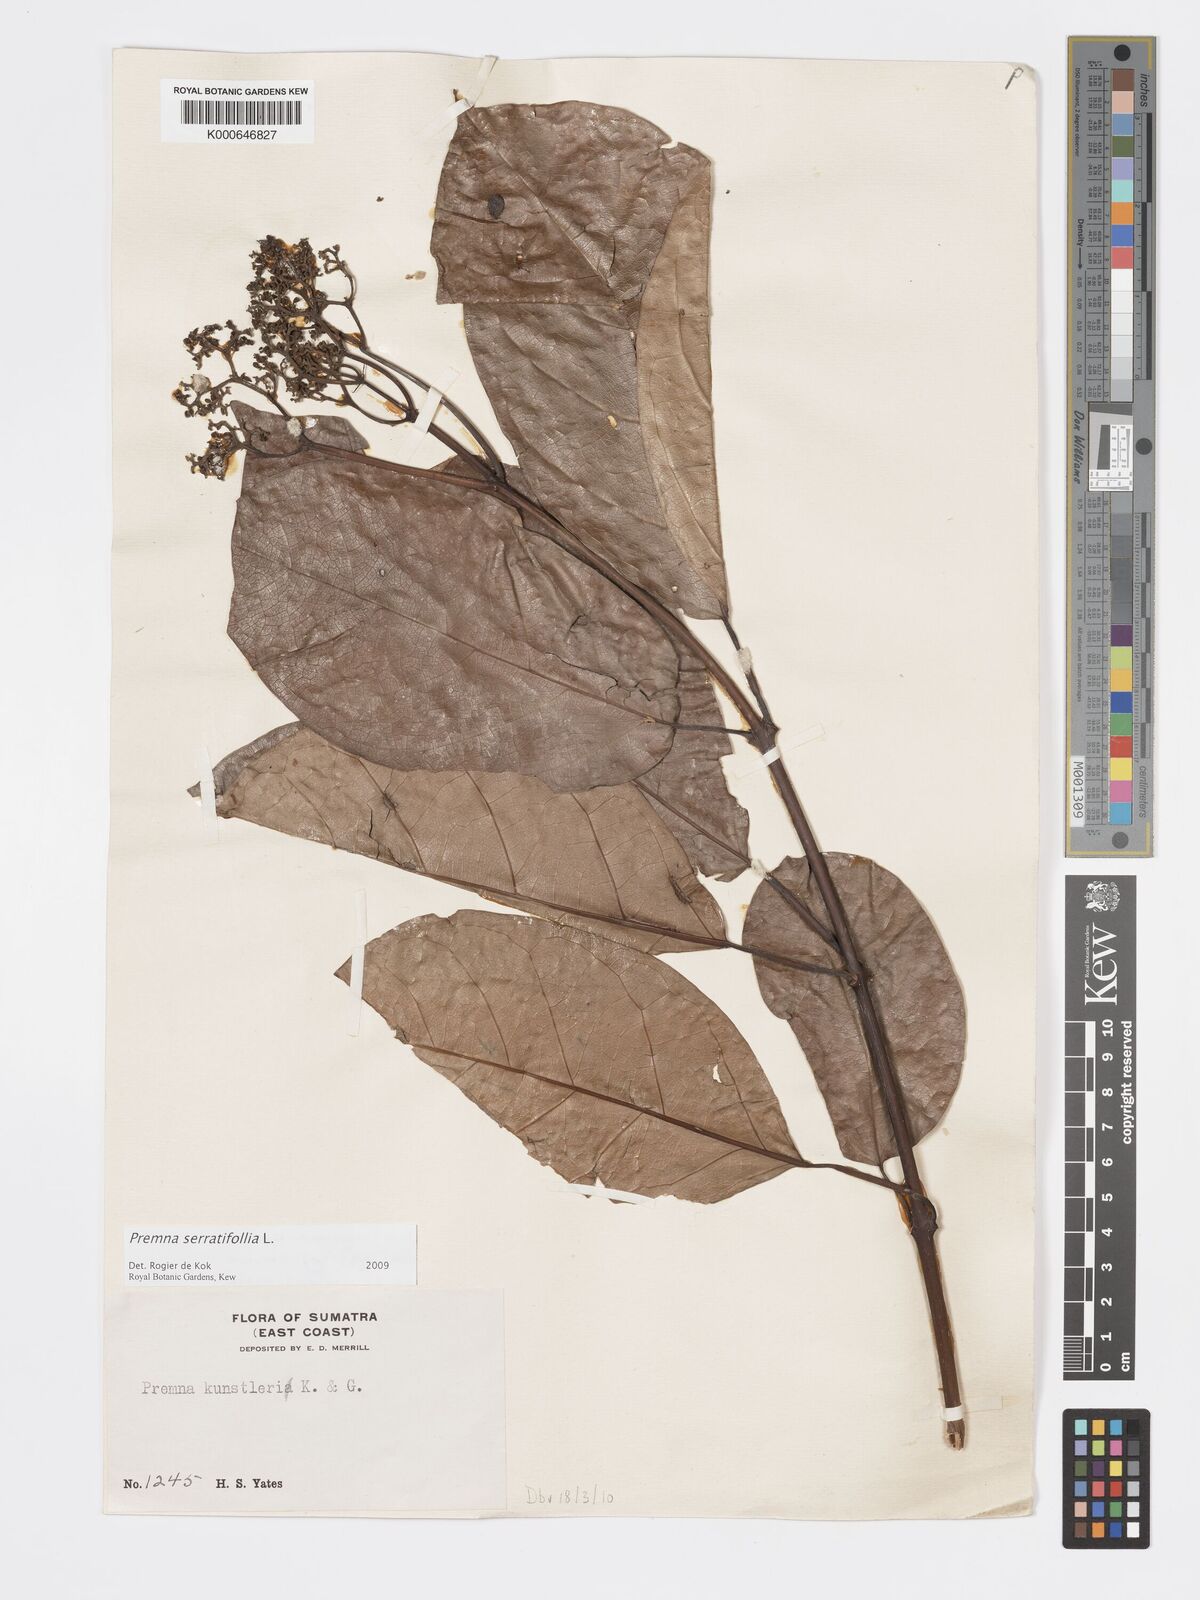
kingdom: Plantae
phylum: Tracheophyta
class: Magnoliopsida
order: Lamiales
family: Lamiaceae
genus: Premna
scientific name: Premna serratifolia
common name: Bastard guelder
